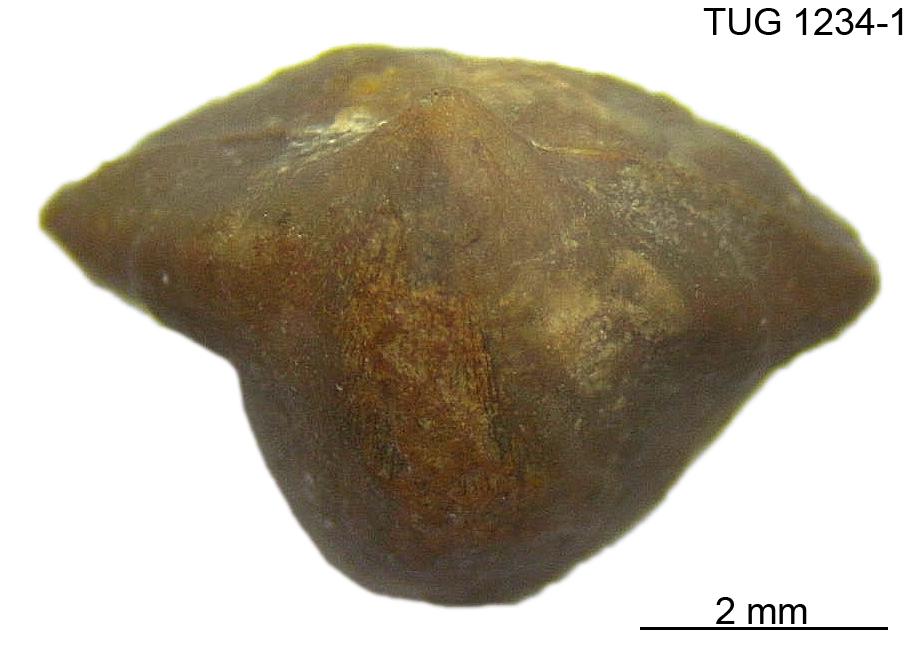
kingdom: Animalia
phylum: Brachiopoda
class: Rhynchonellata
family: Cyclospiridae
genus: Cyclospira
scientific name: Cyclospira levisulcata
